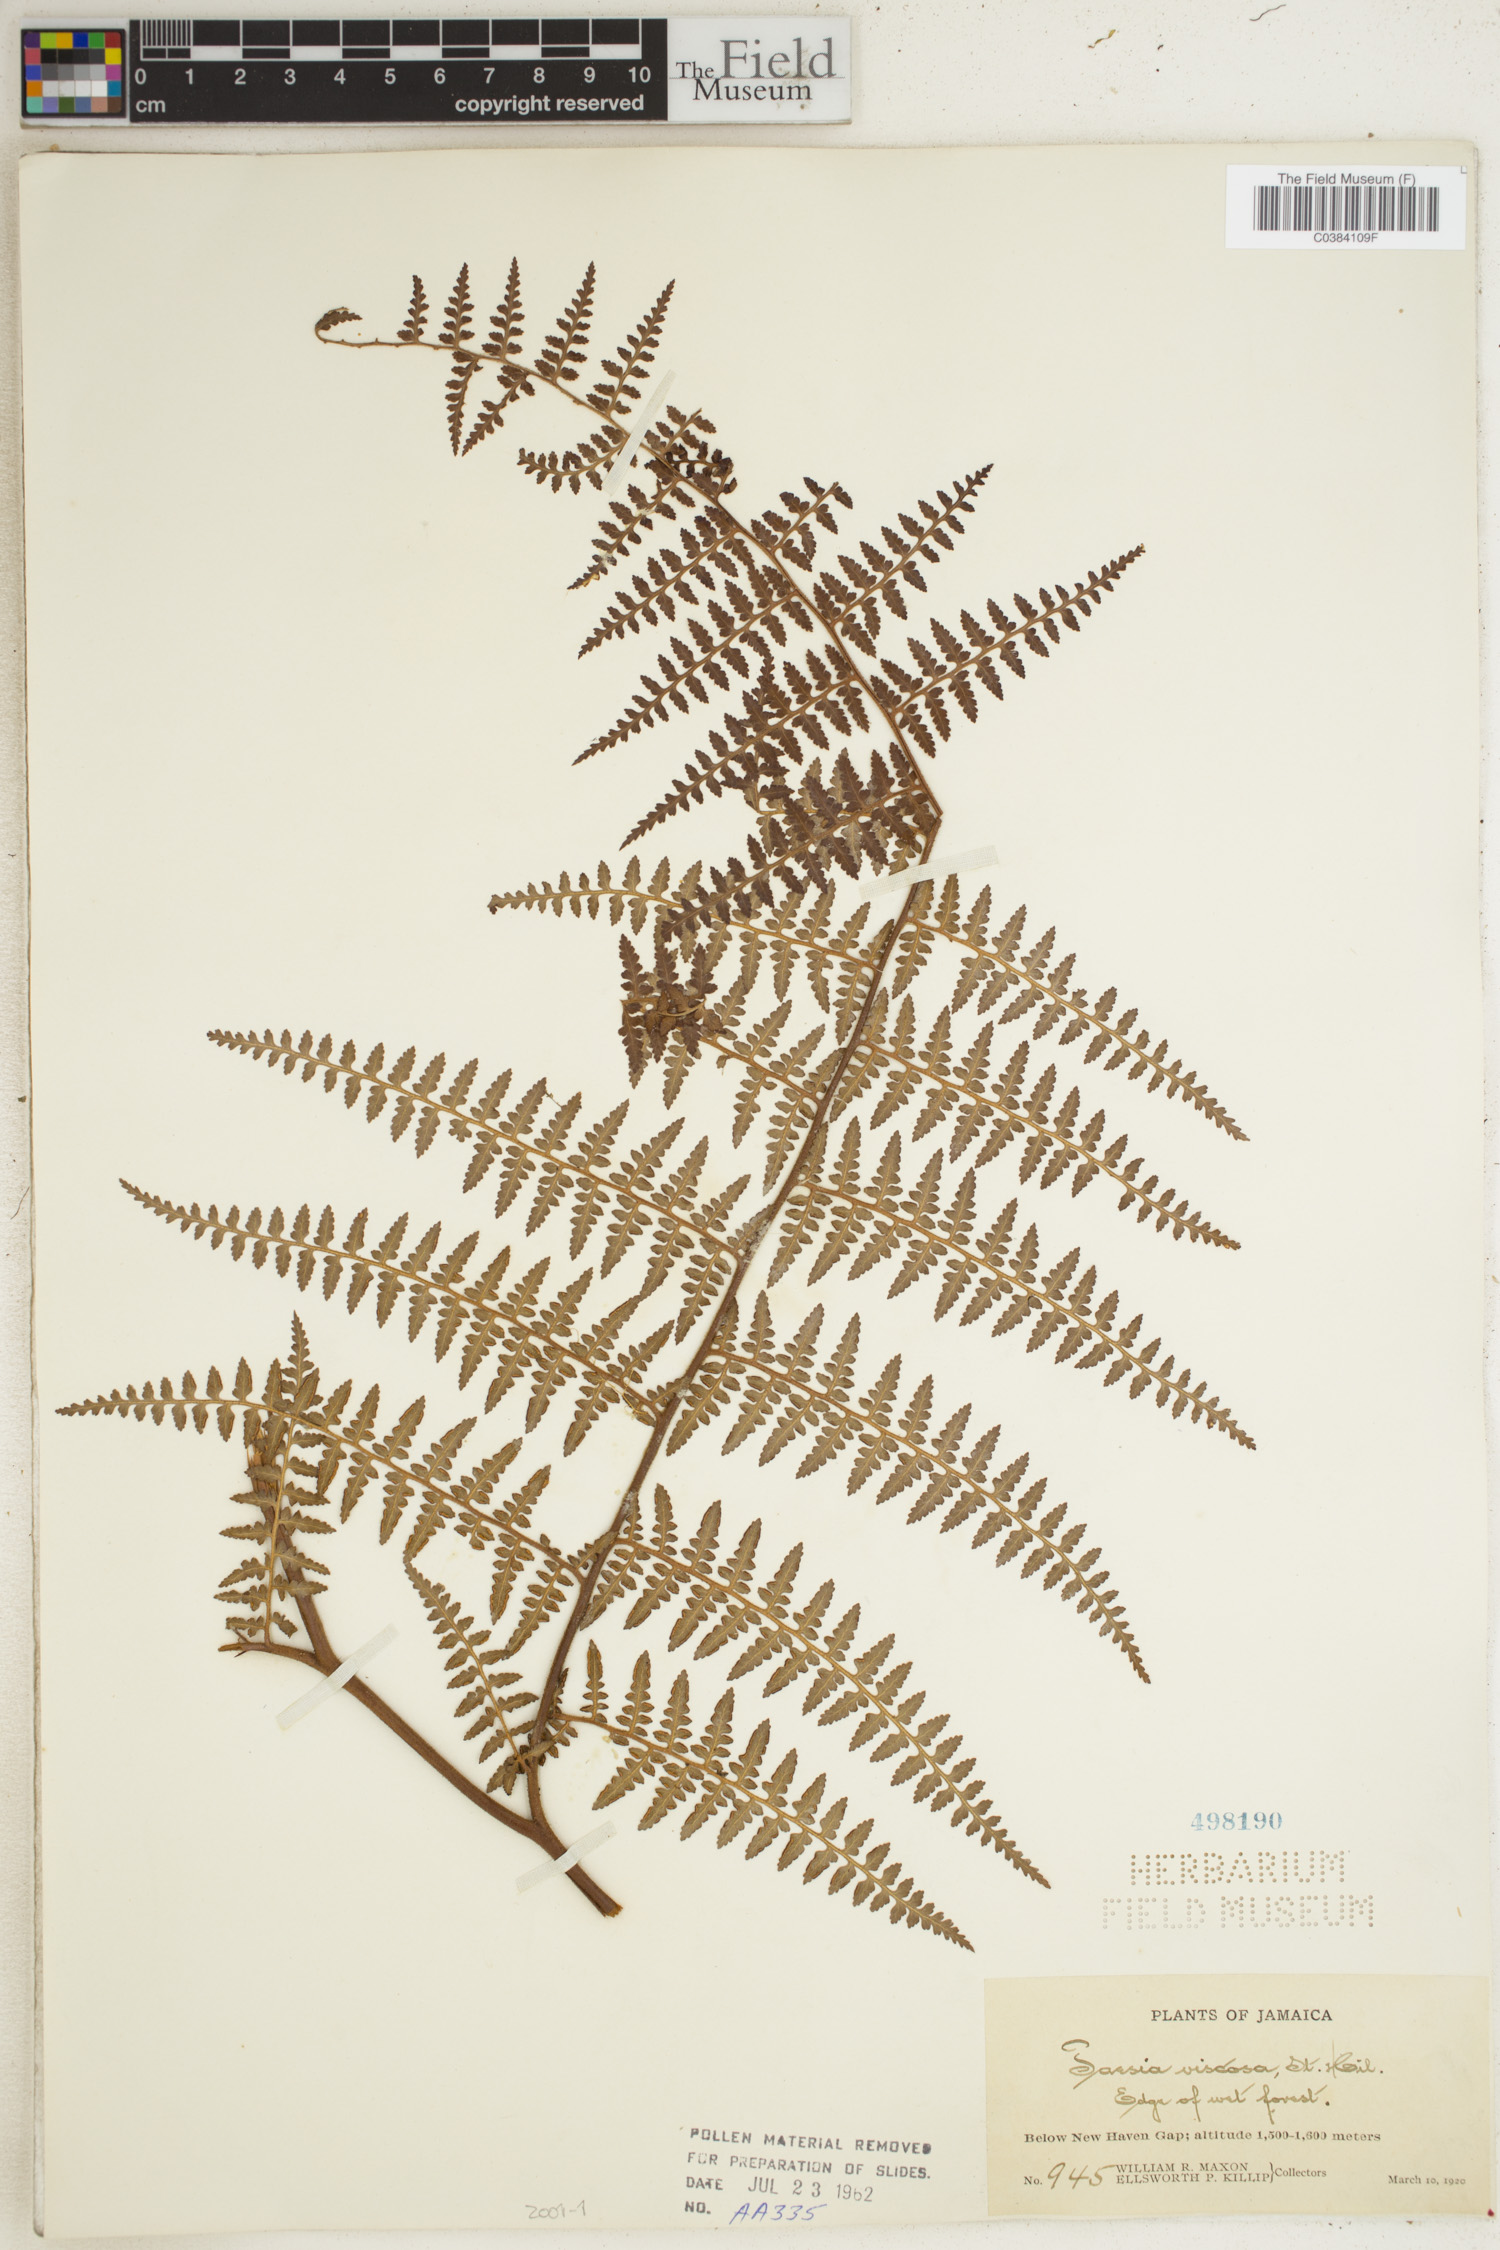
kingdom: Plantae
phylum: Tracheophyta
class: Polypodiopsida
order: Polypodiales
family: Dennstaedtiaceae
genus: Paesia
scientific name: Paesia glandulosa
